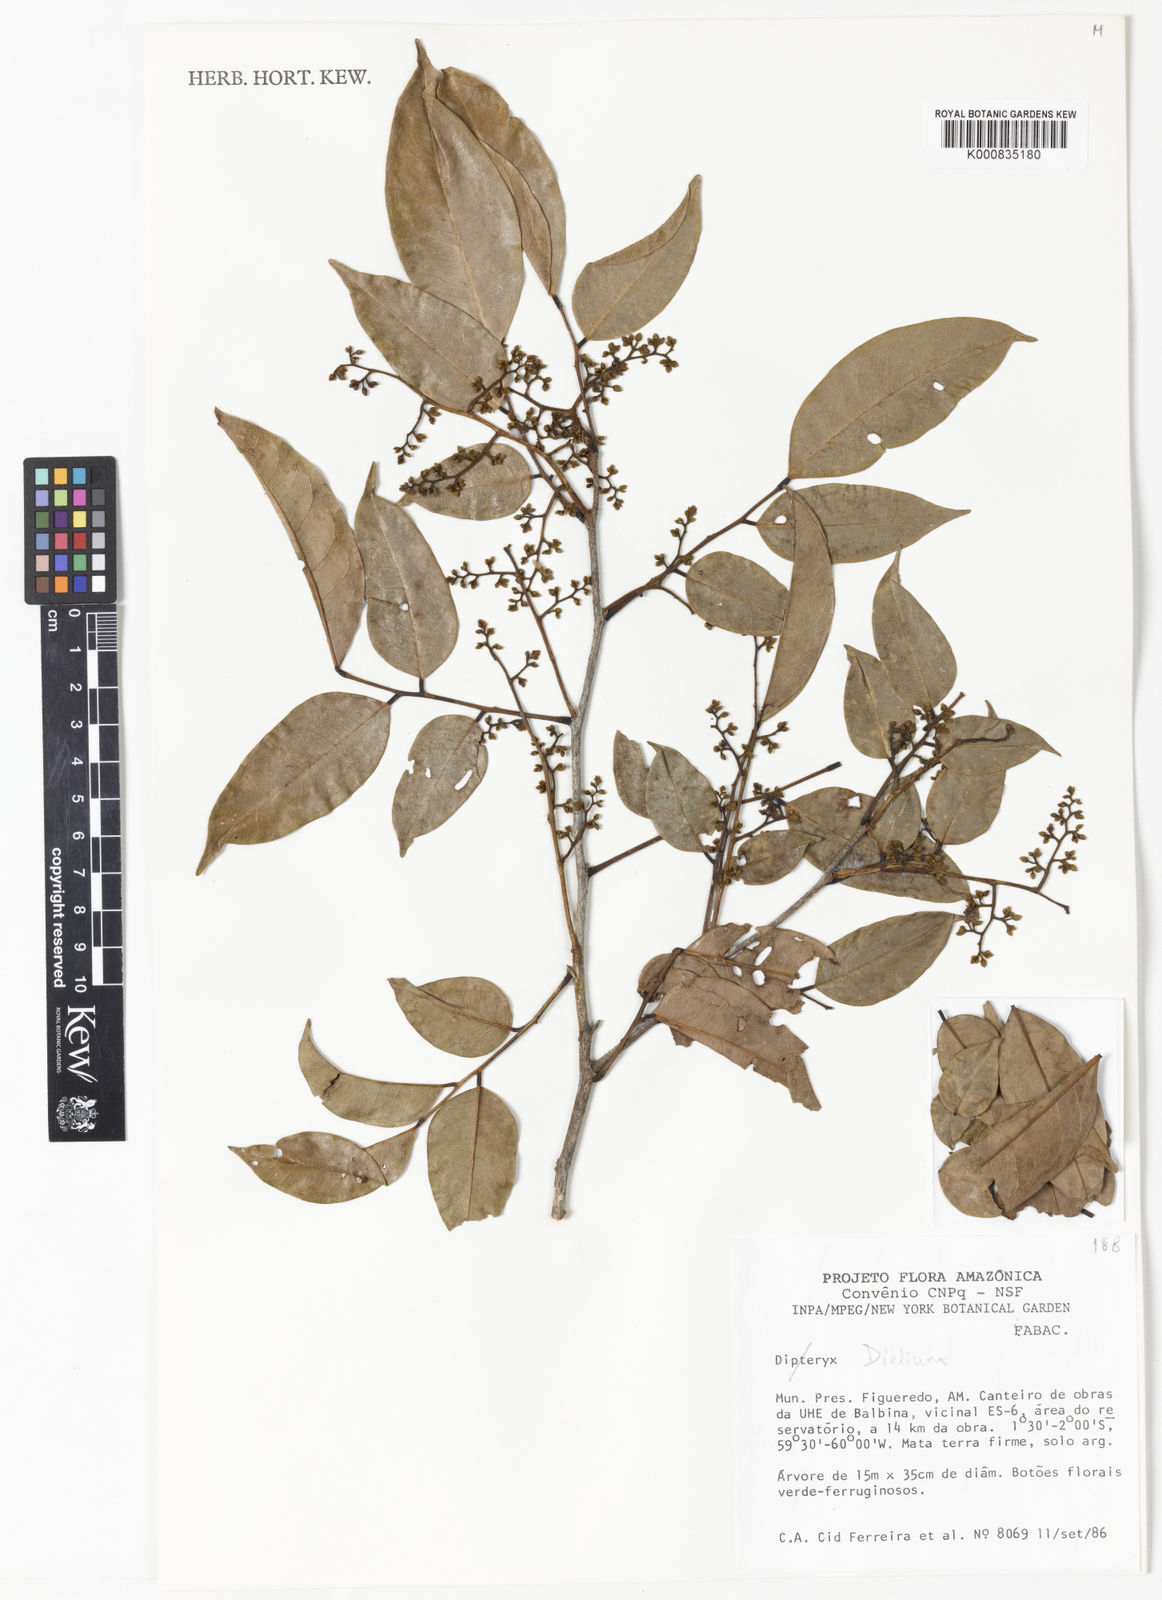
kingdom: Plantae
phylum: Tracheophyta
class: Magnoliopsida
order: Fabales
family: Fabaceae
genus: Dialium
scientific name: Dialium
